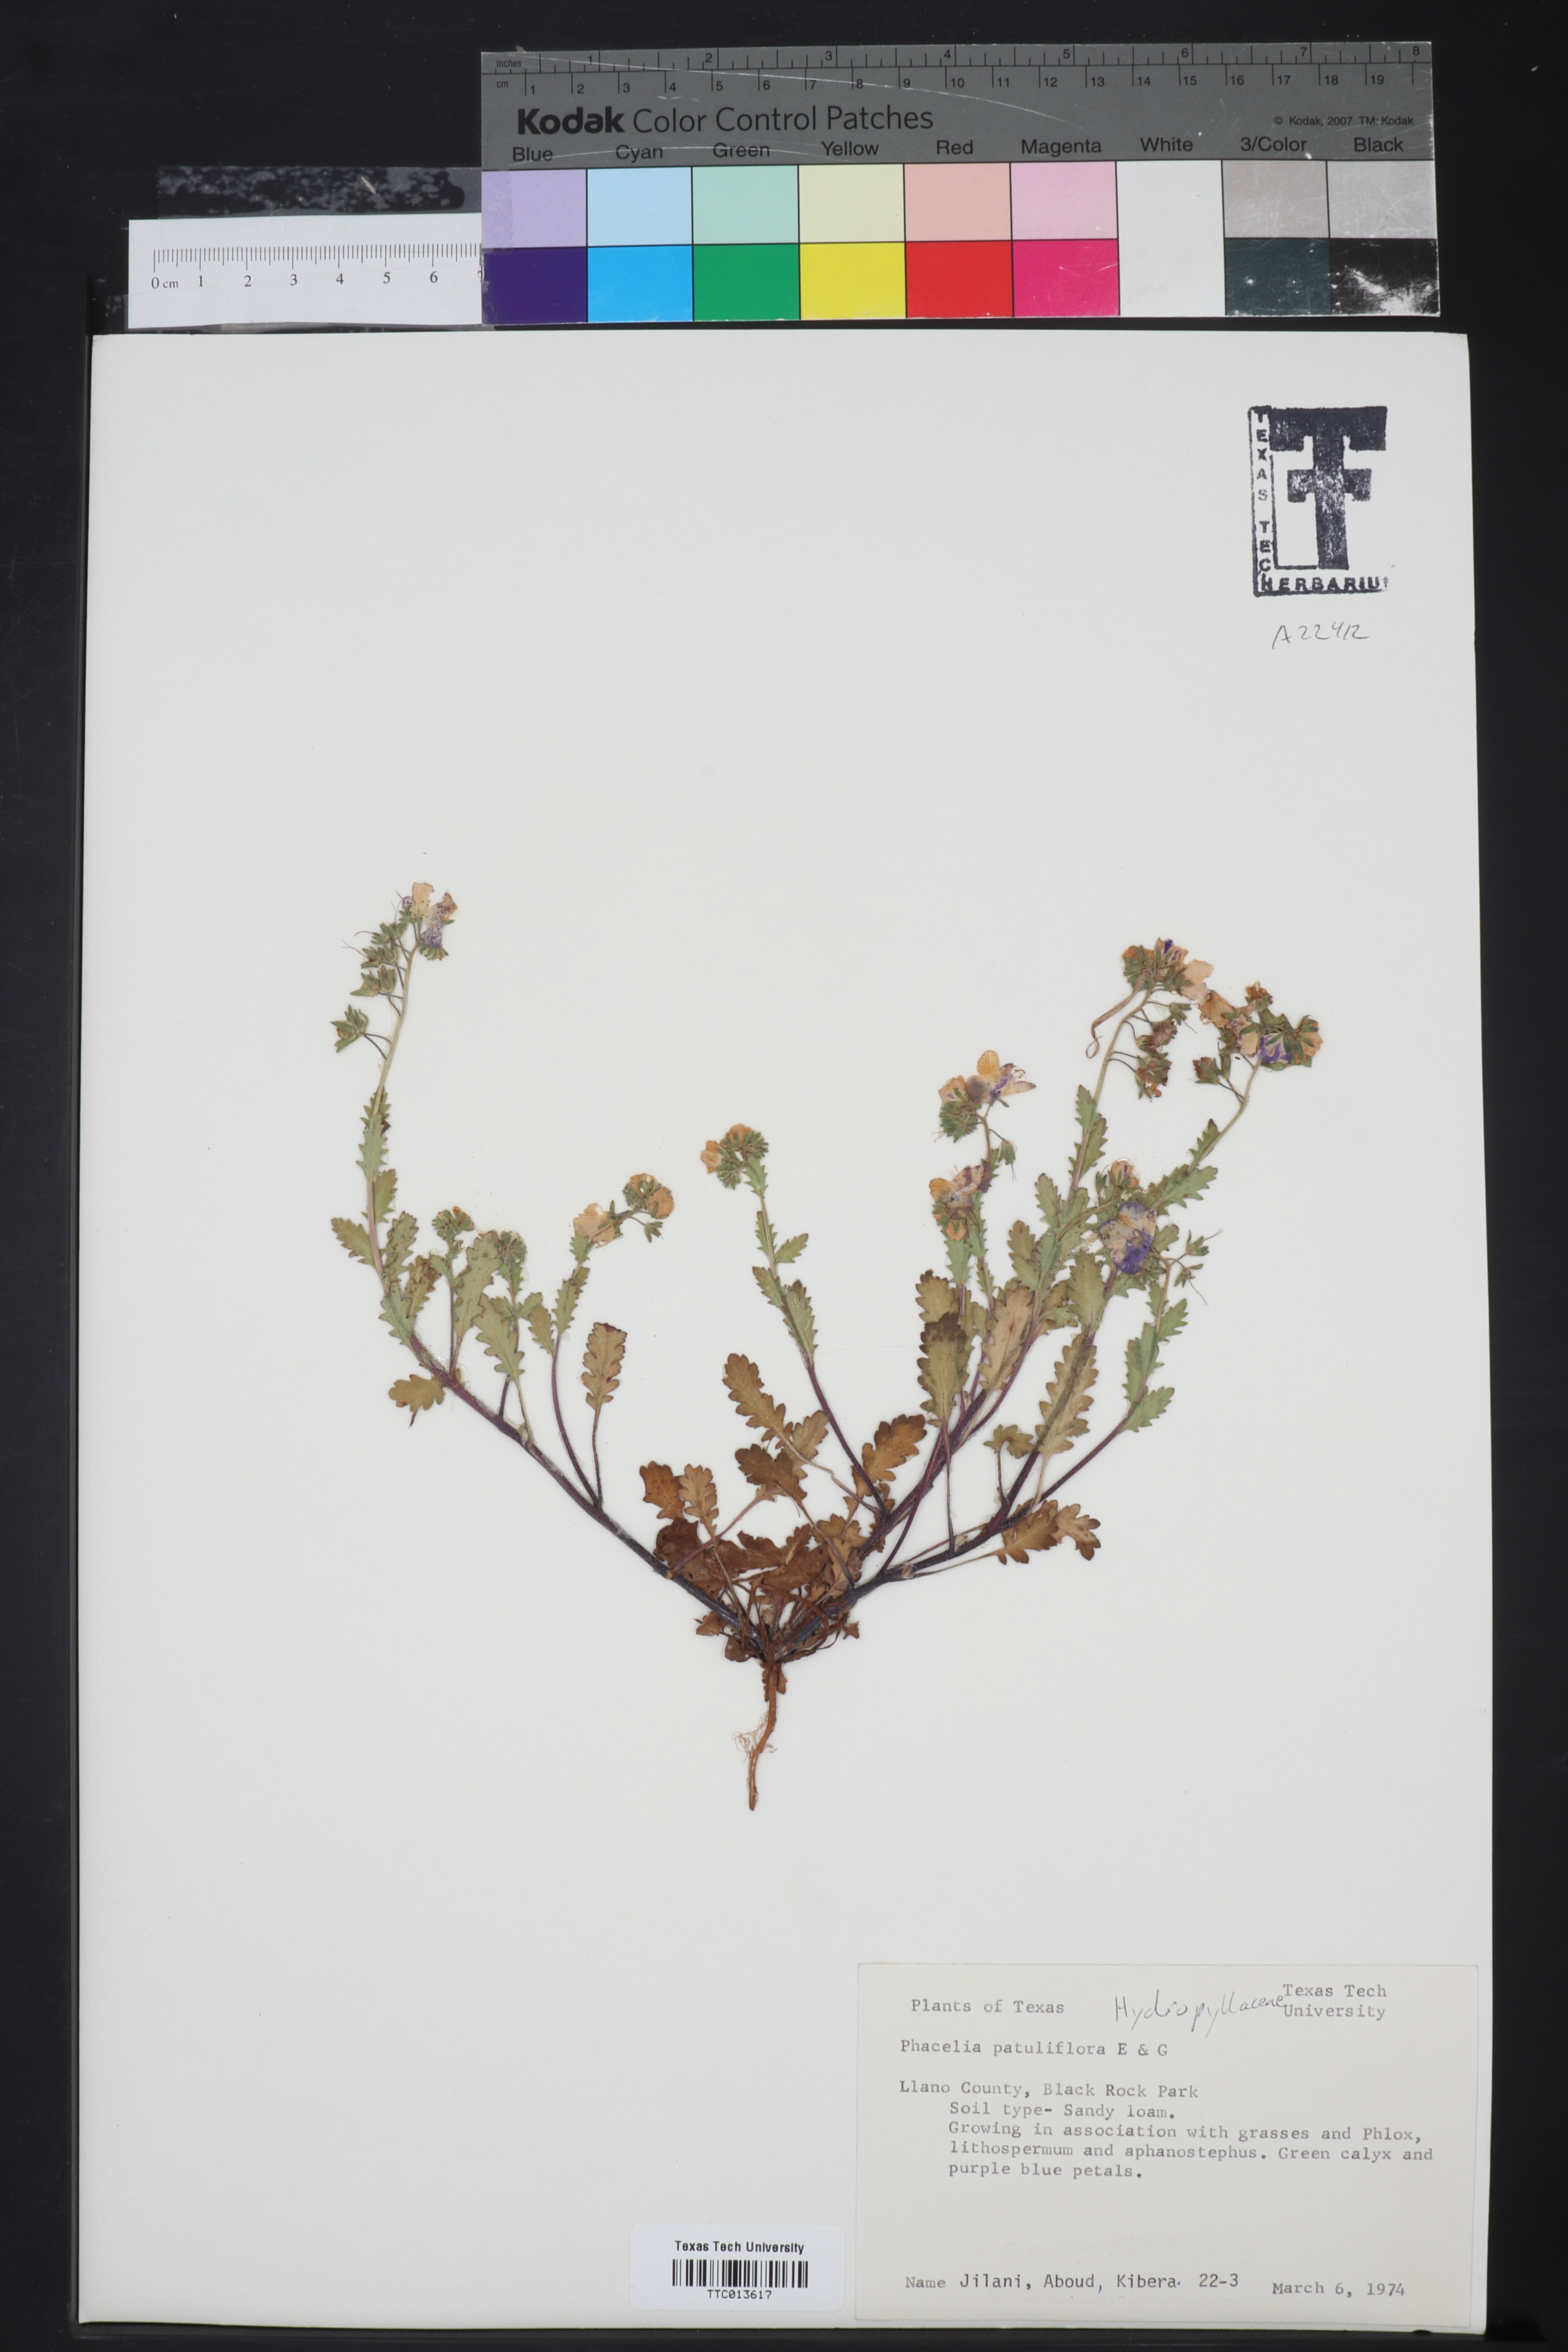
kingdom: Plantae
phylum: Tracheophyta
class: Magnoliopsida
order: Boraginales
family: Hydrophyllaceae
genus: Phacelia
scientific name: Phacelia patuliflora
